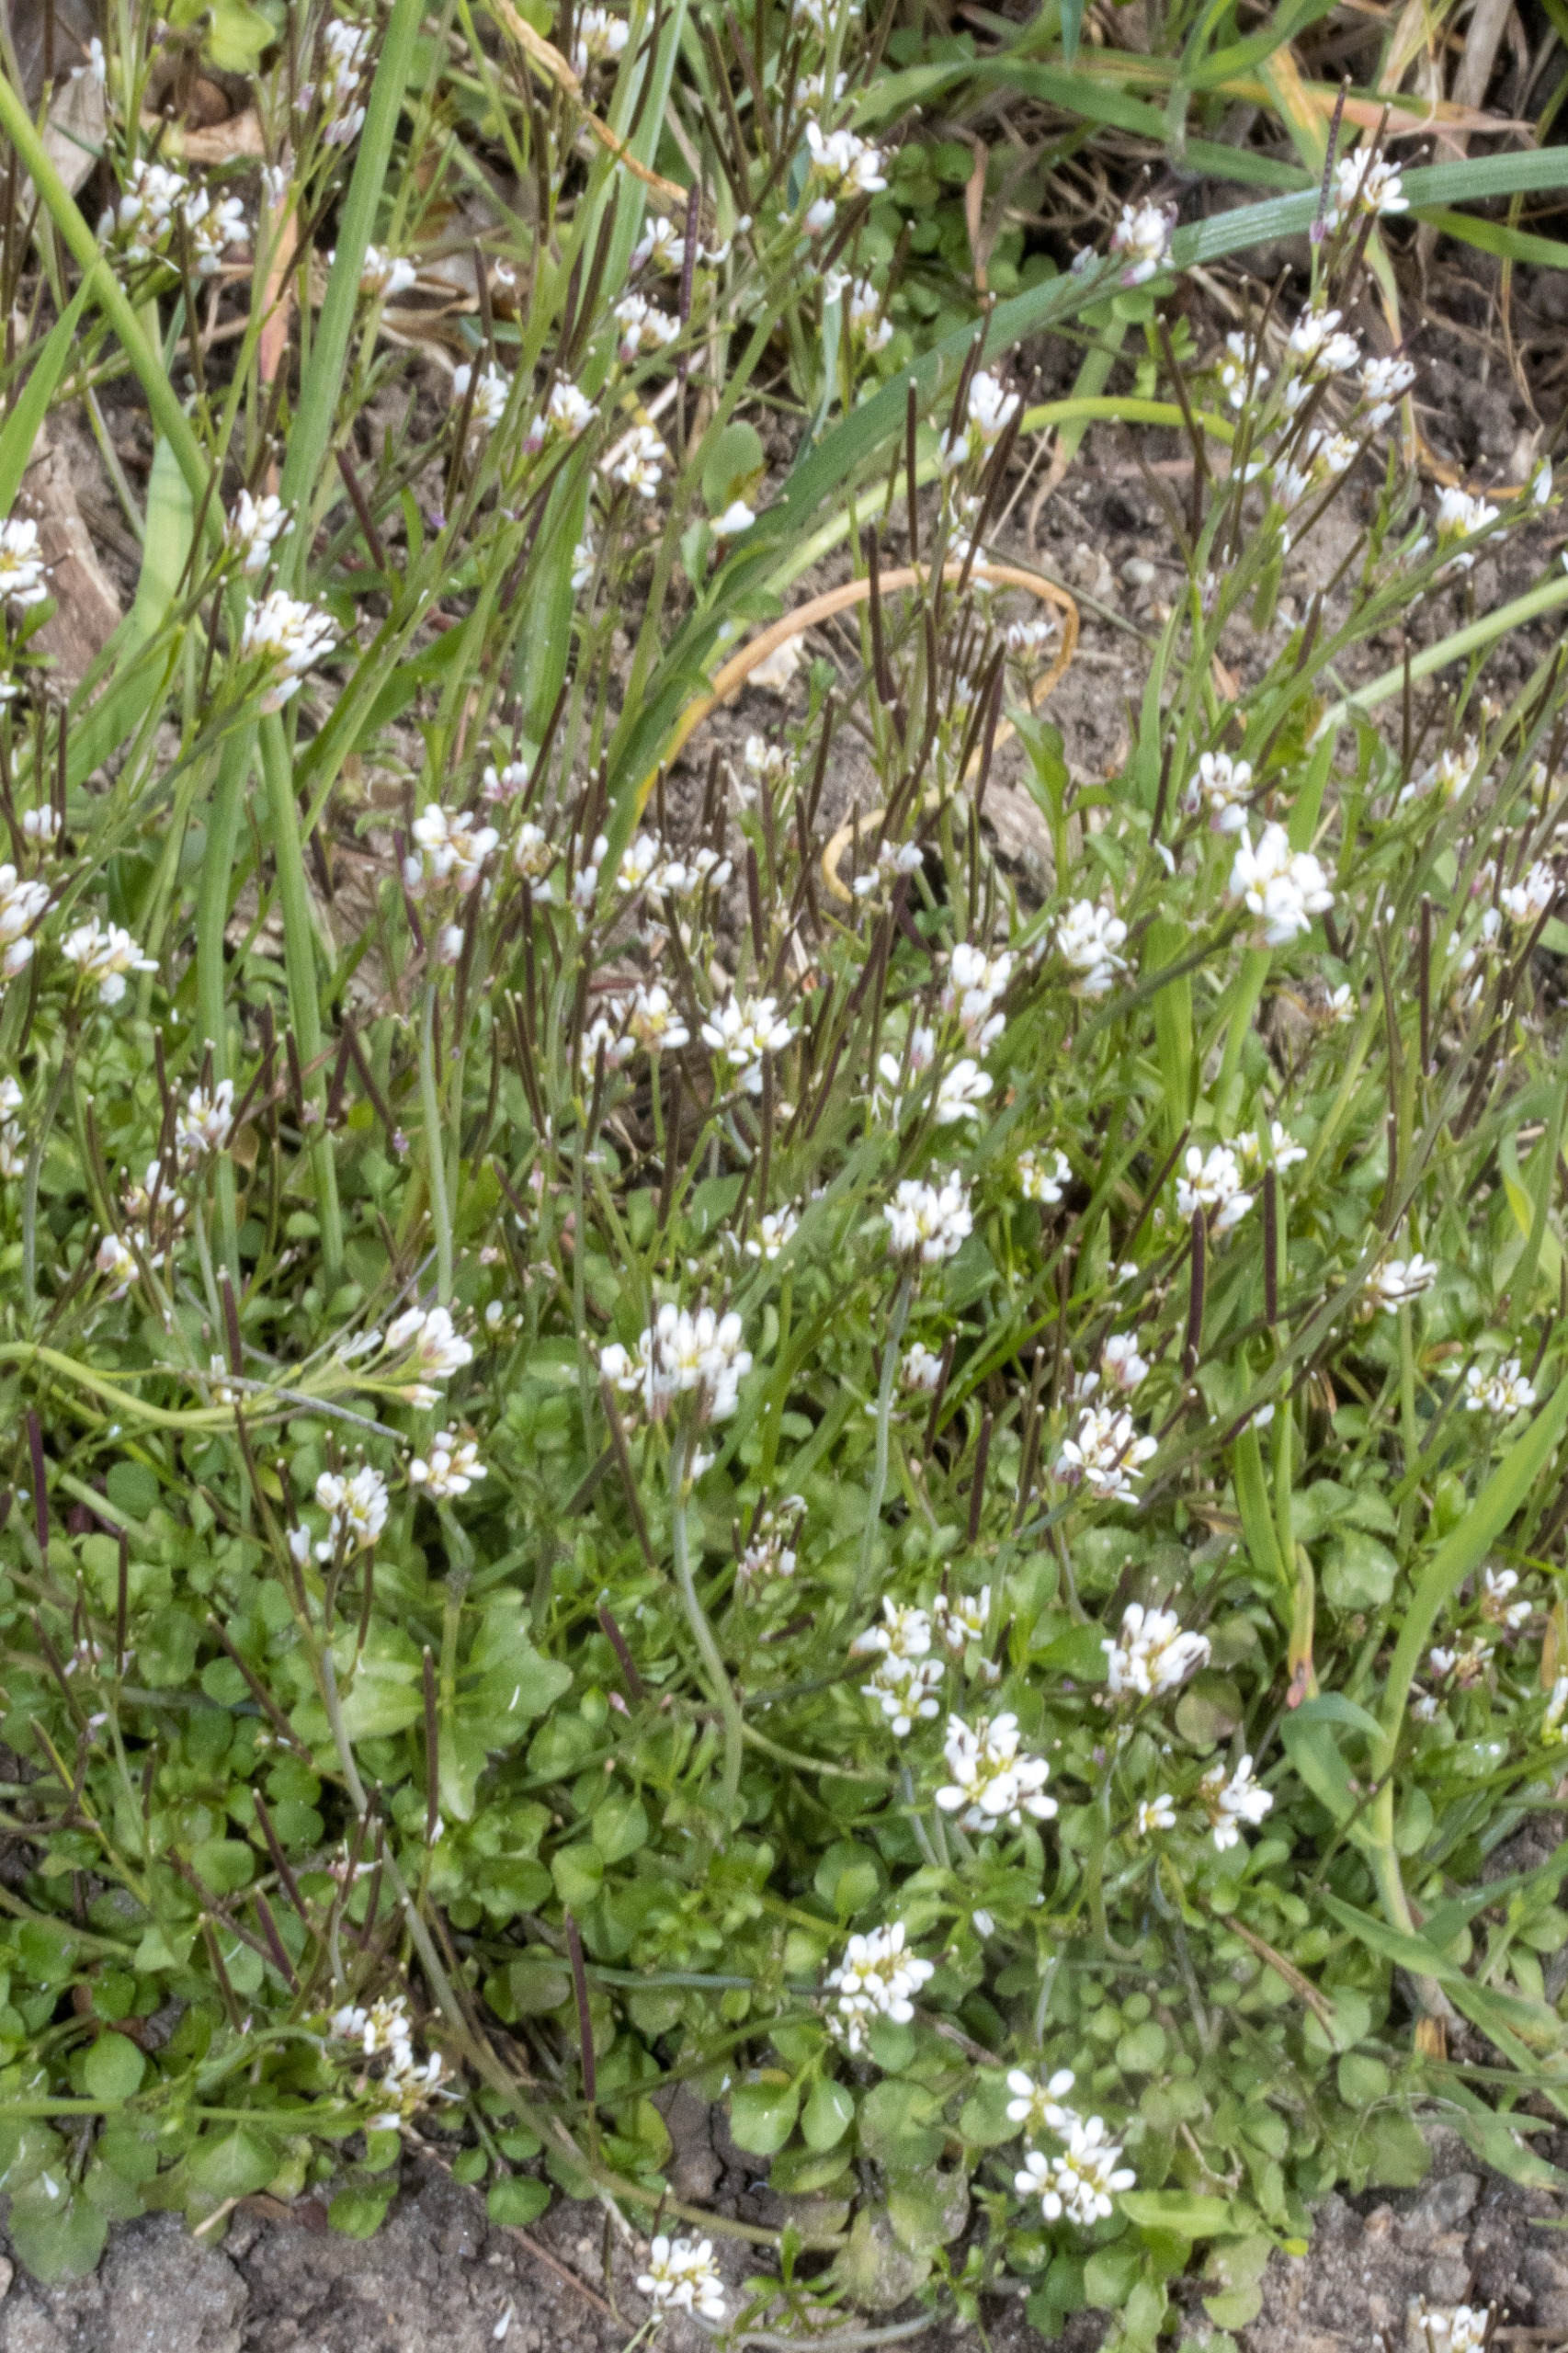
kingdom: Plantae
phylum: Tracheophyta
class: Magnoliopsida
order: Brassicales
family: Brassicaceae
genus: Cardamine
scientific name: Cardamine hirsuta
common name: Roset-springklap
